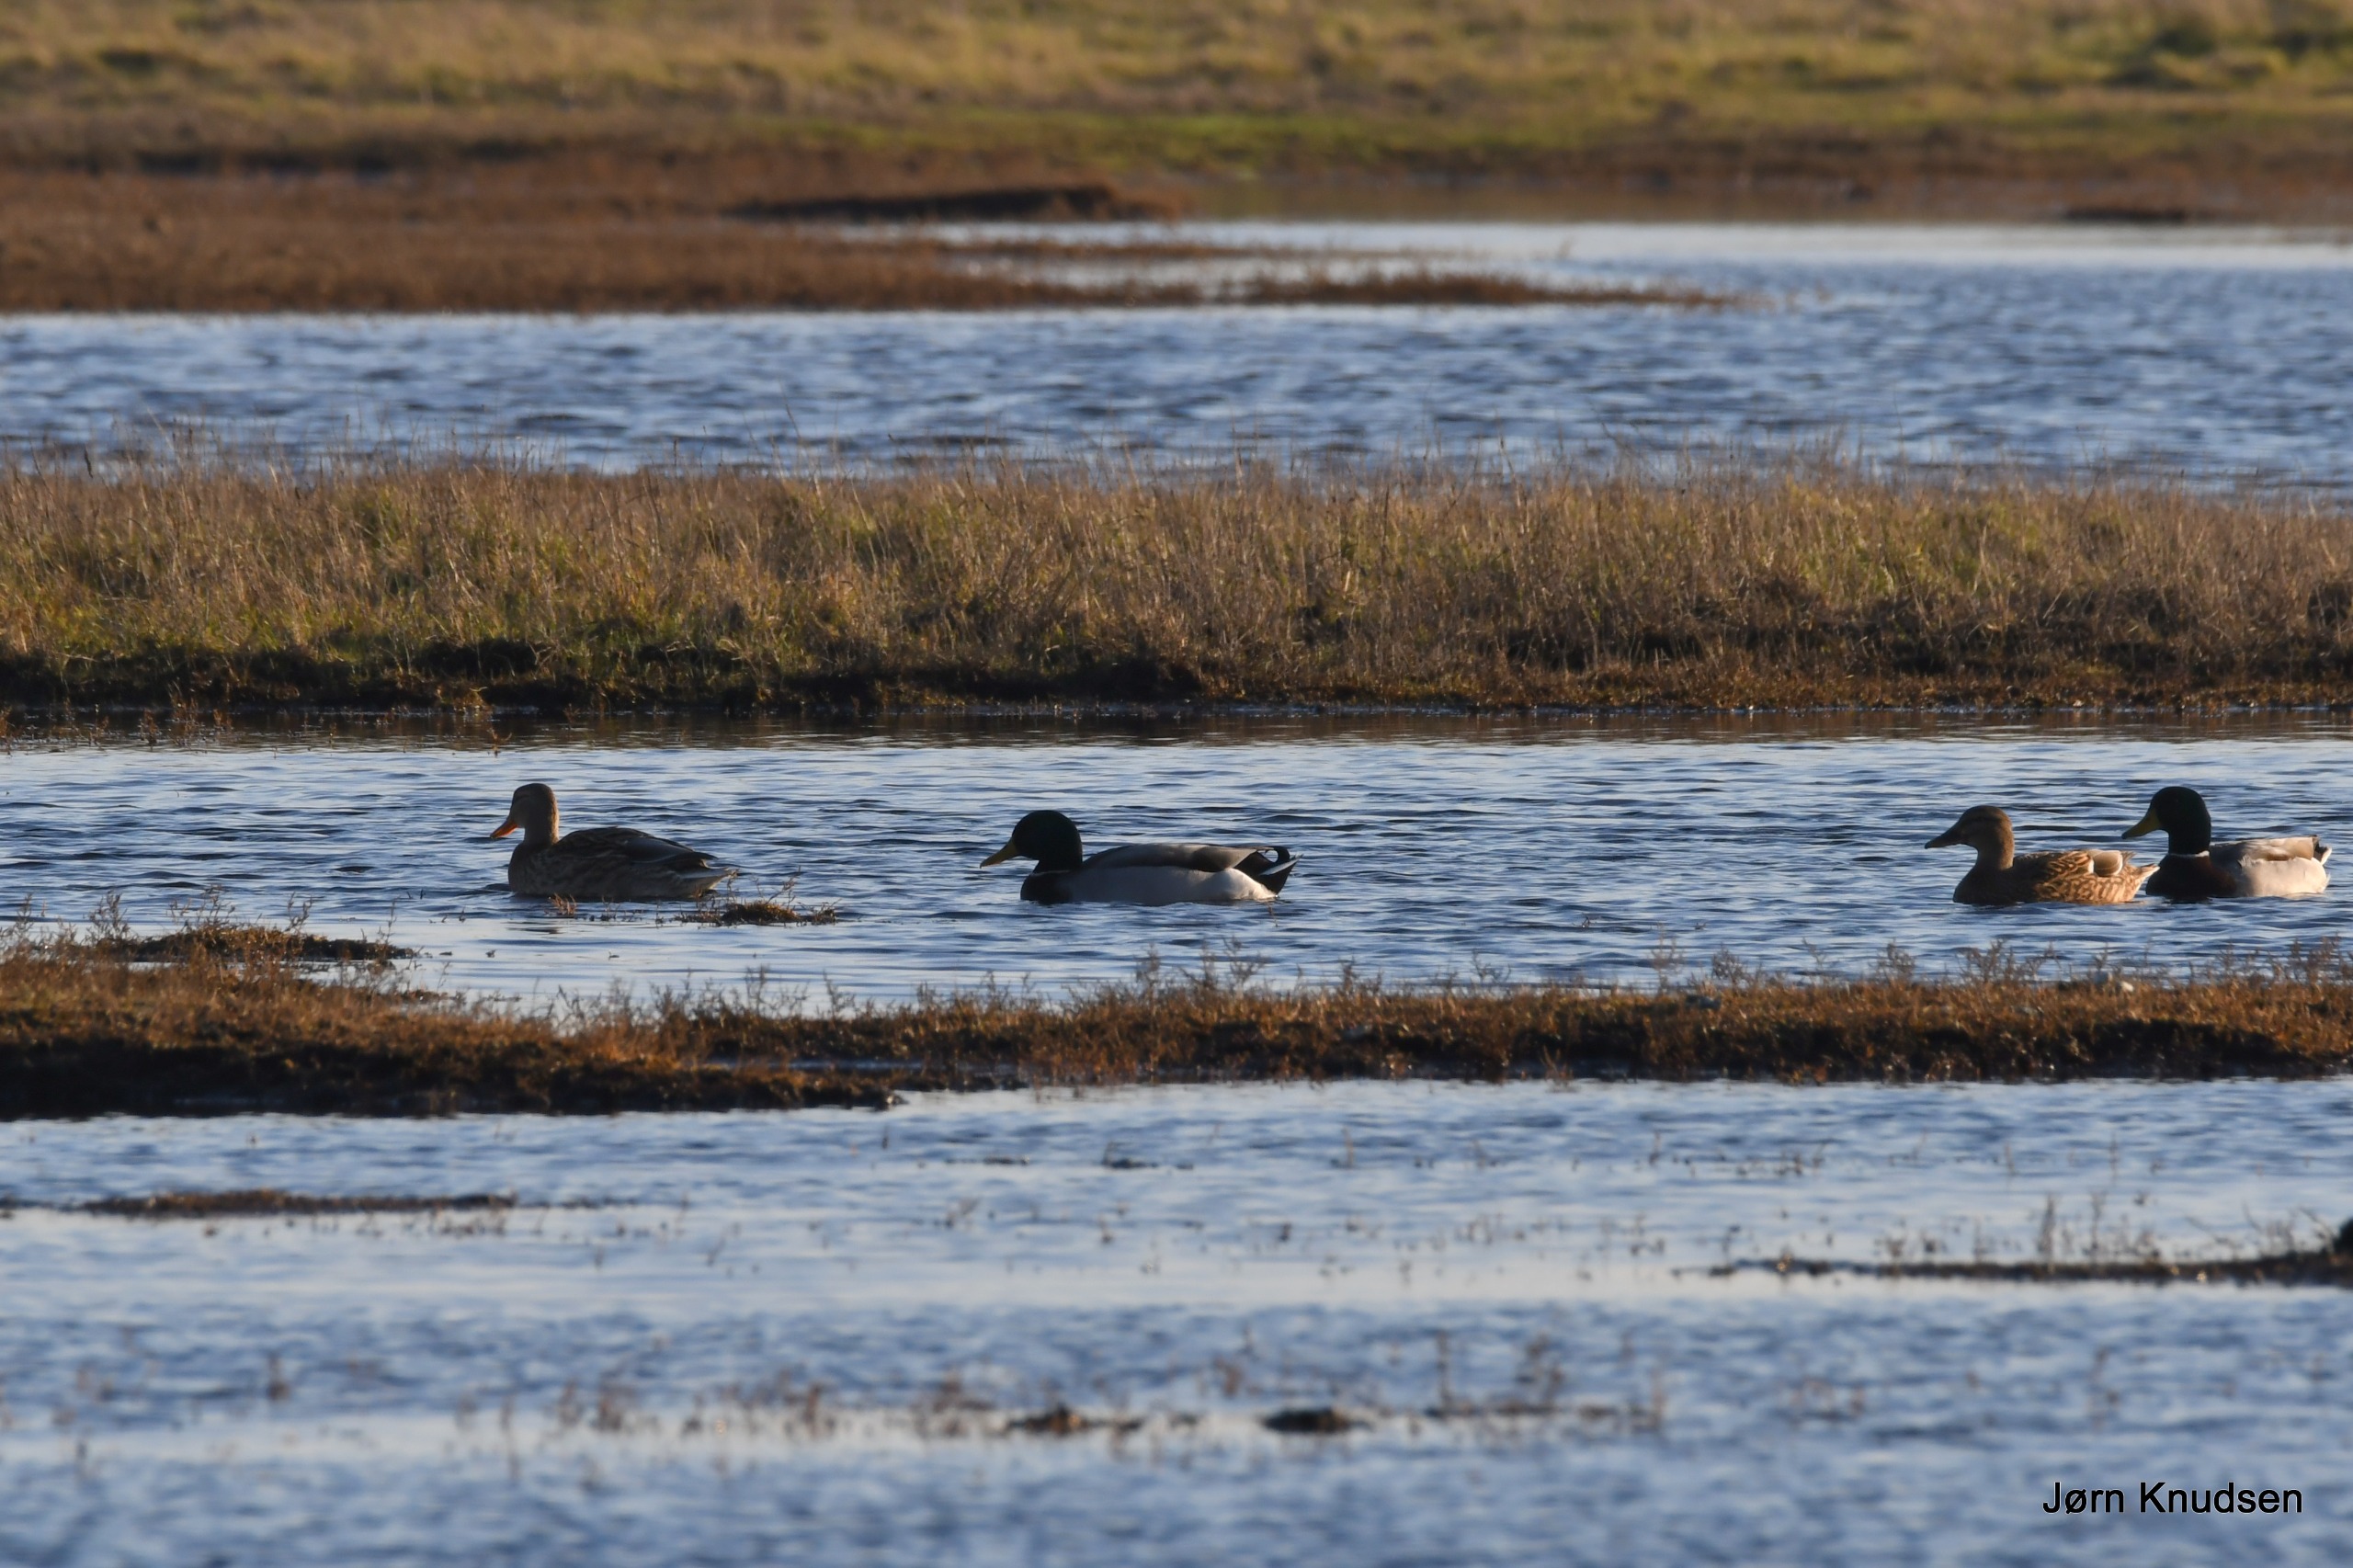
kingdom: Animalia
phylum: Chordata
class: Aves
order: Anseriformes
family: Anatidae
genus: Anas
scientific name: Anas platyrhynchos
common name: Gråand
